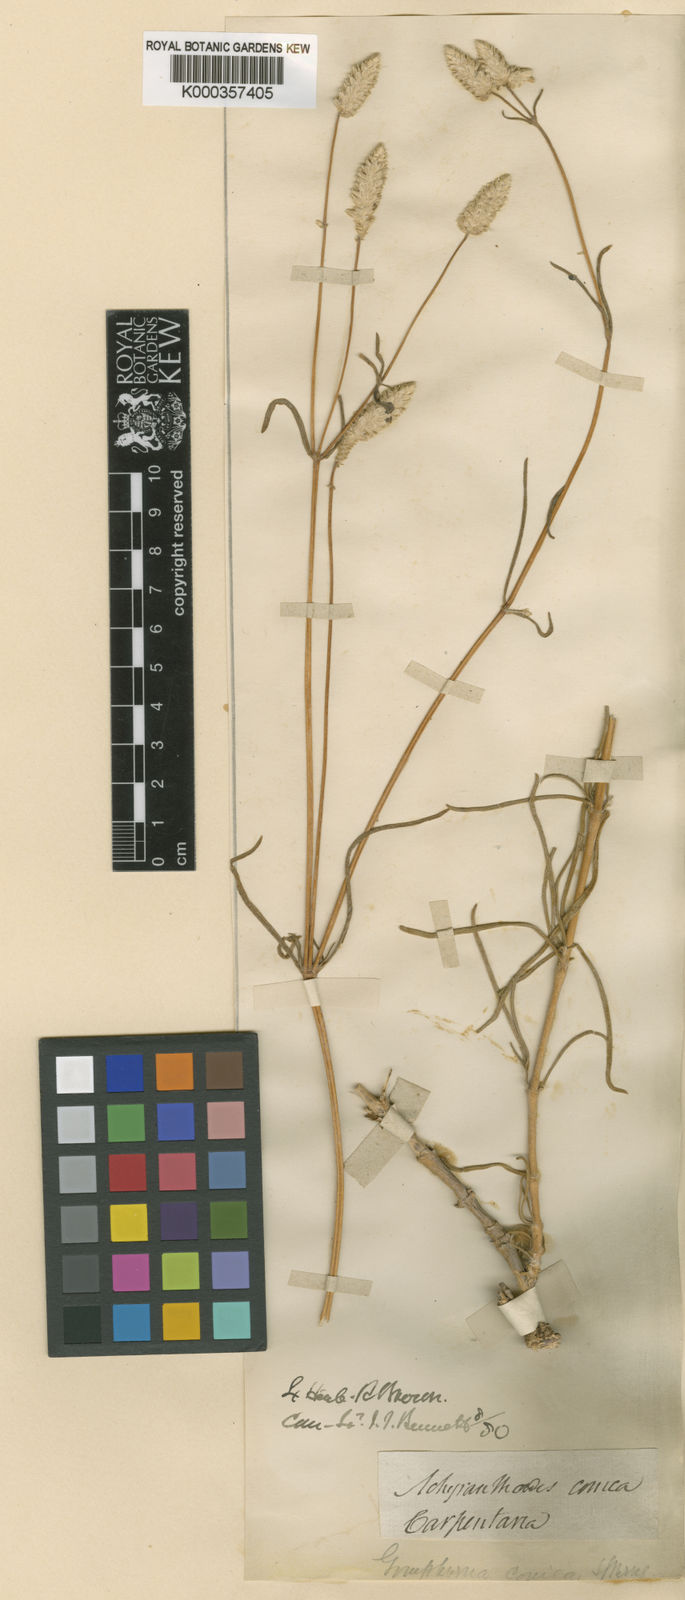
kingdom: Plantae
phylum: Tracheophyta
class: Magnoliopsida
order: Caryophyllales
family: Amaranthaceae
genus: Gomphrena
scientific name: Gomphrena conica
